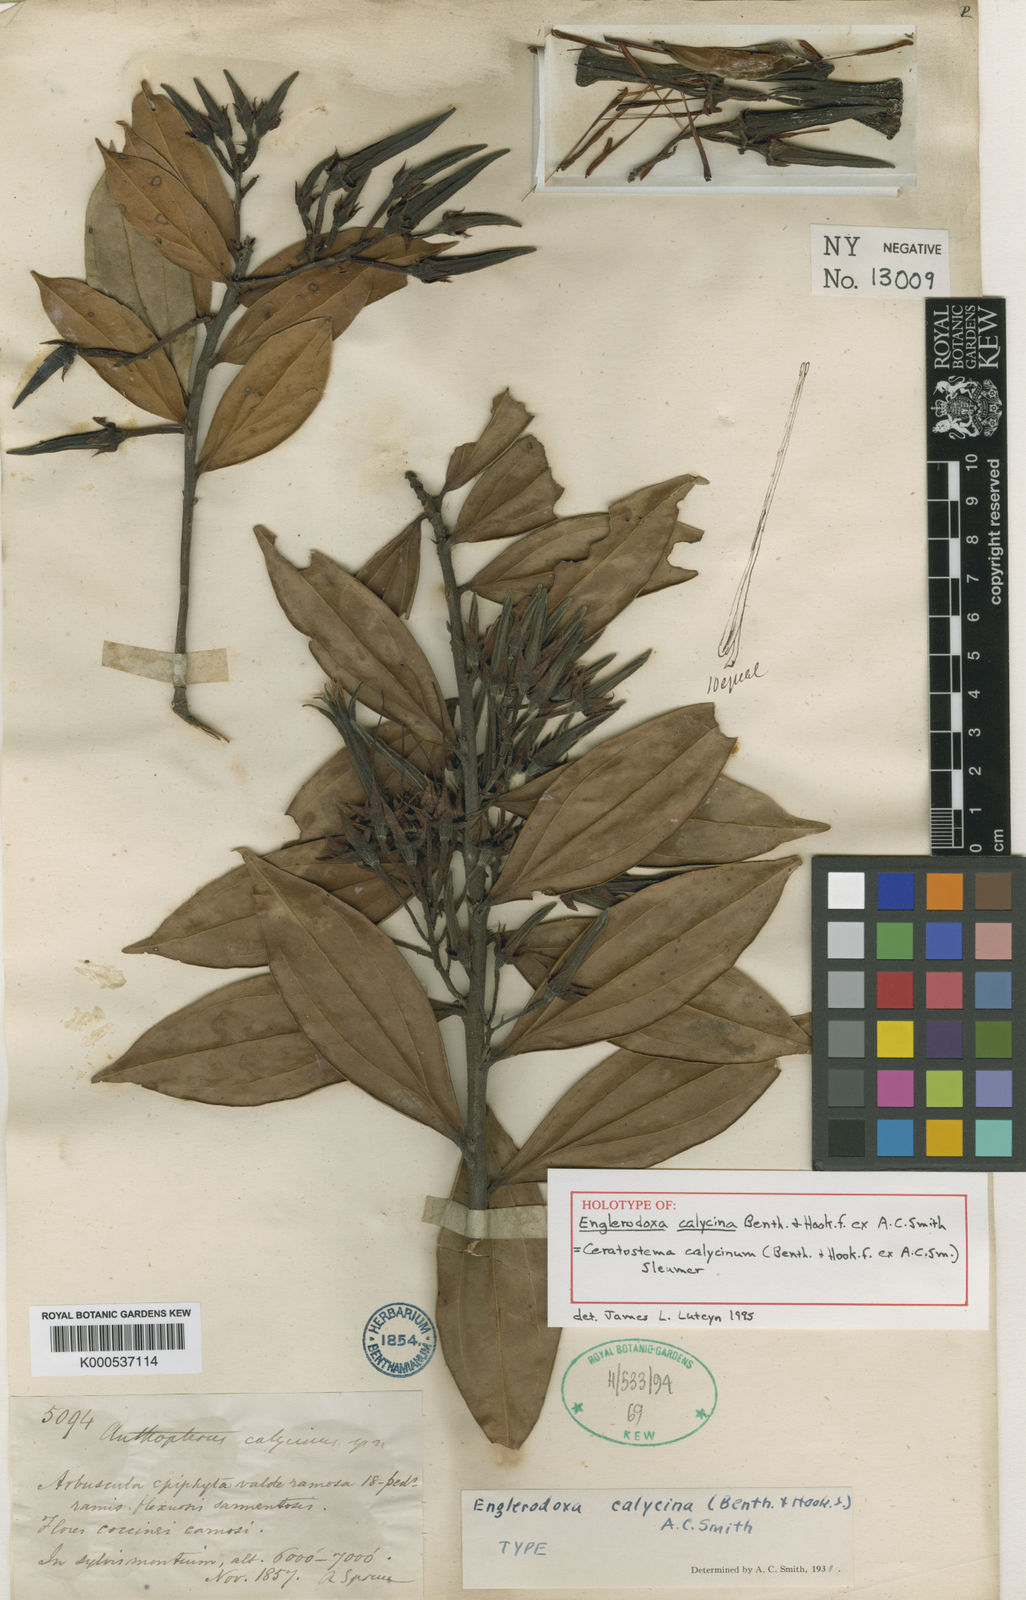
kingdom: Plantae
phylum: Tracheophyta
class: Magnoliopsida
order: Ericales
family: Ericaceae
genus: Ceratostema
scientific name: Ceratostema calycinum
